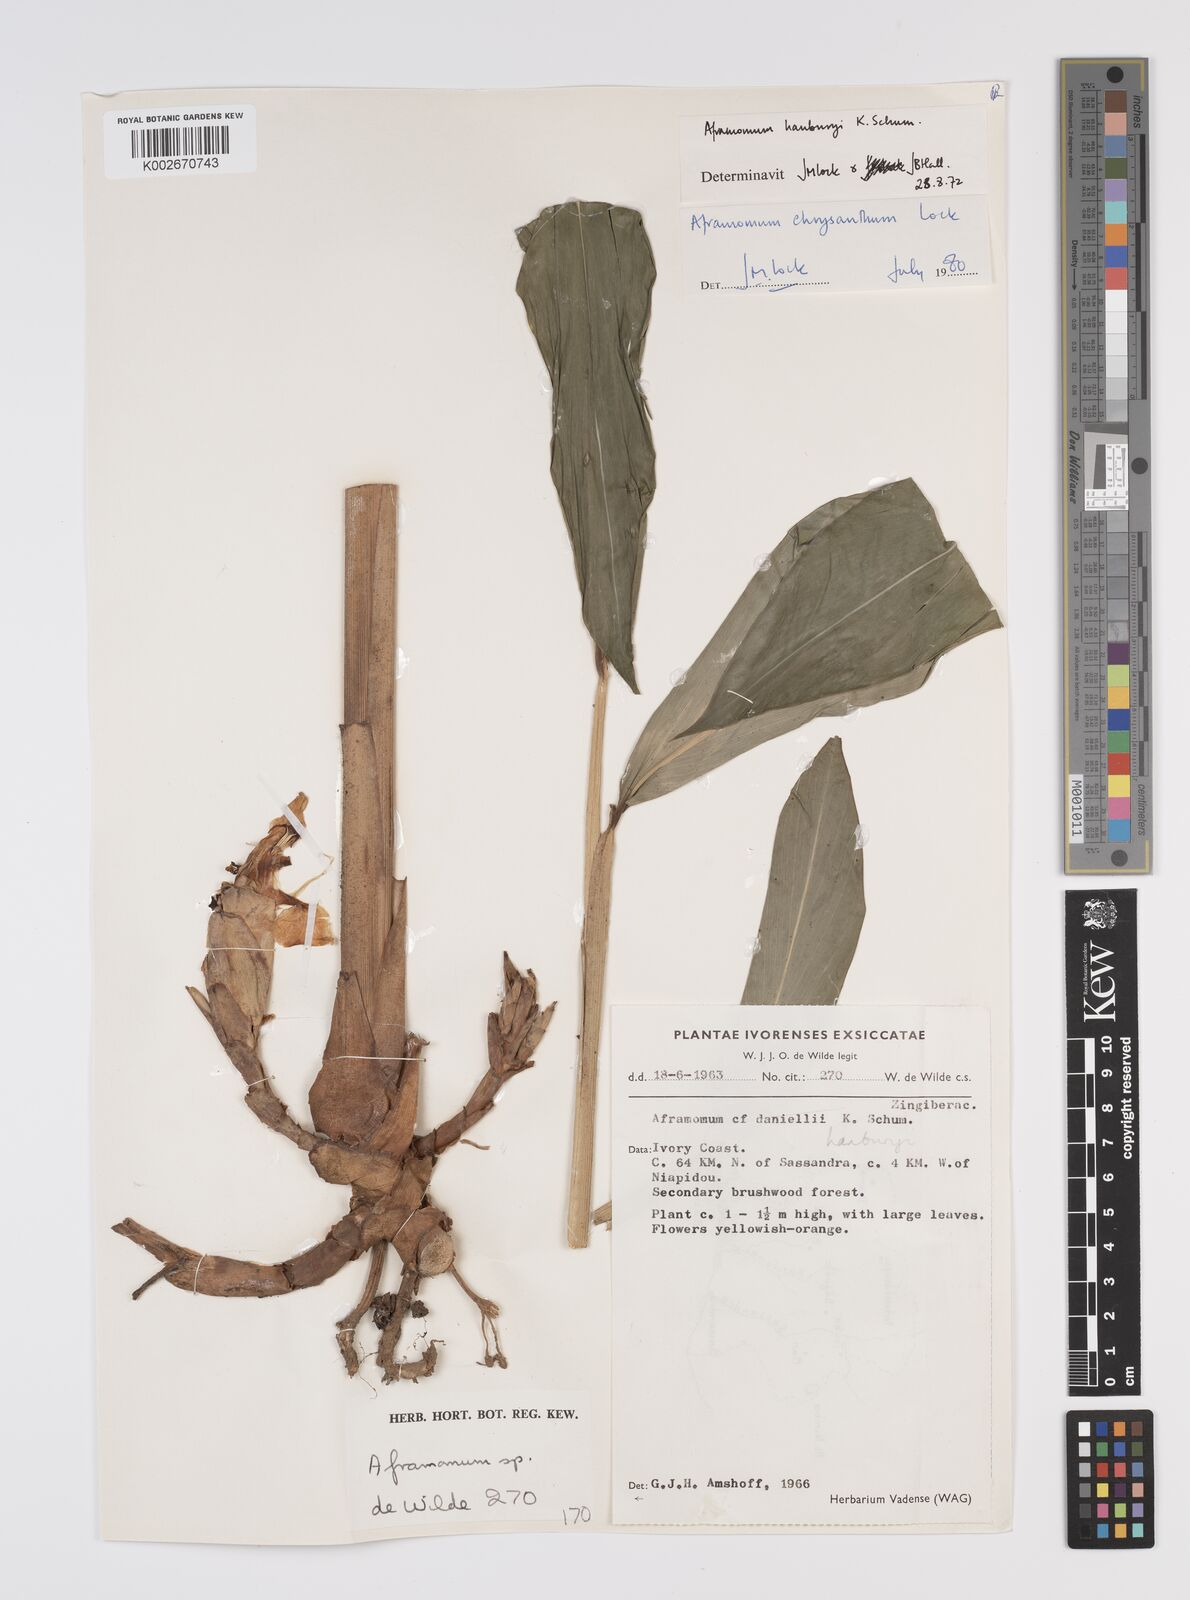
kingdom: Plantae
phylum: Tracheophyta
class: Liliopsida
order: Zingiberales
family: Zingiberaceae
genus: Aframomum
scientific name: Aframomum chrysanthum
